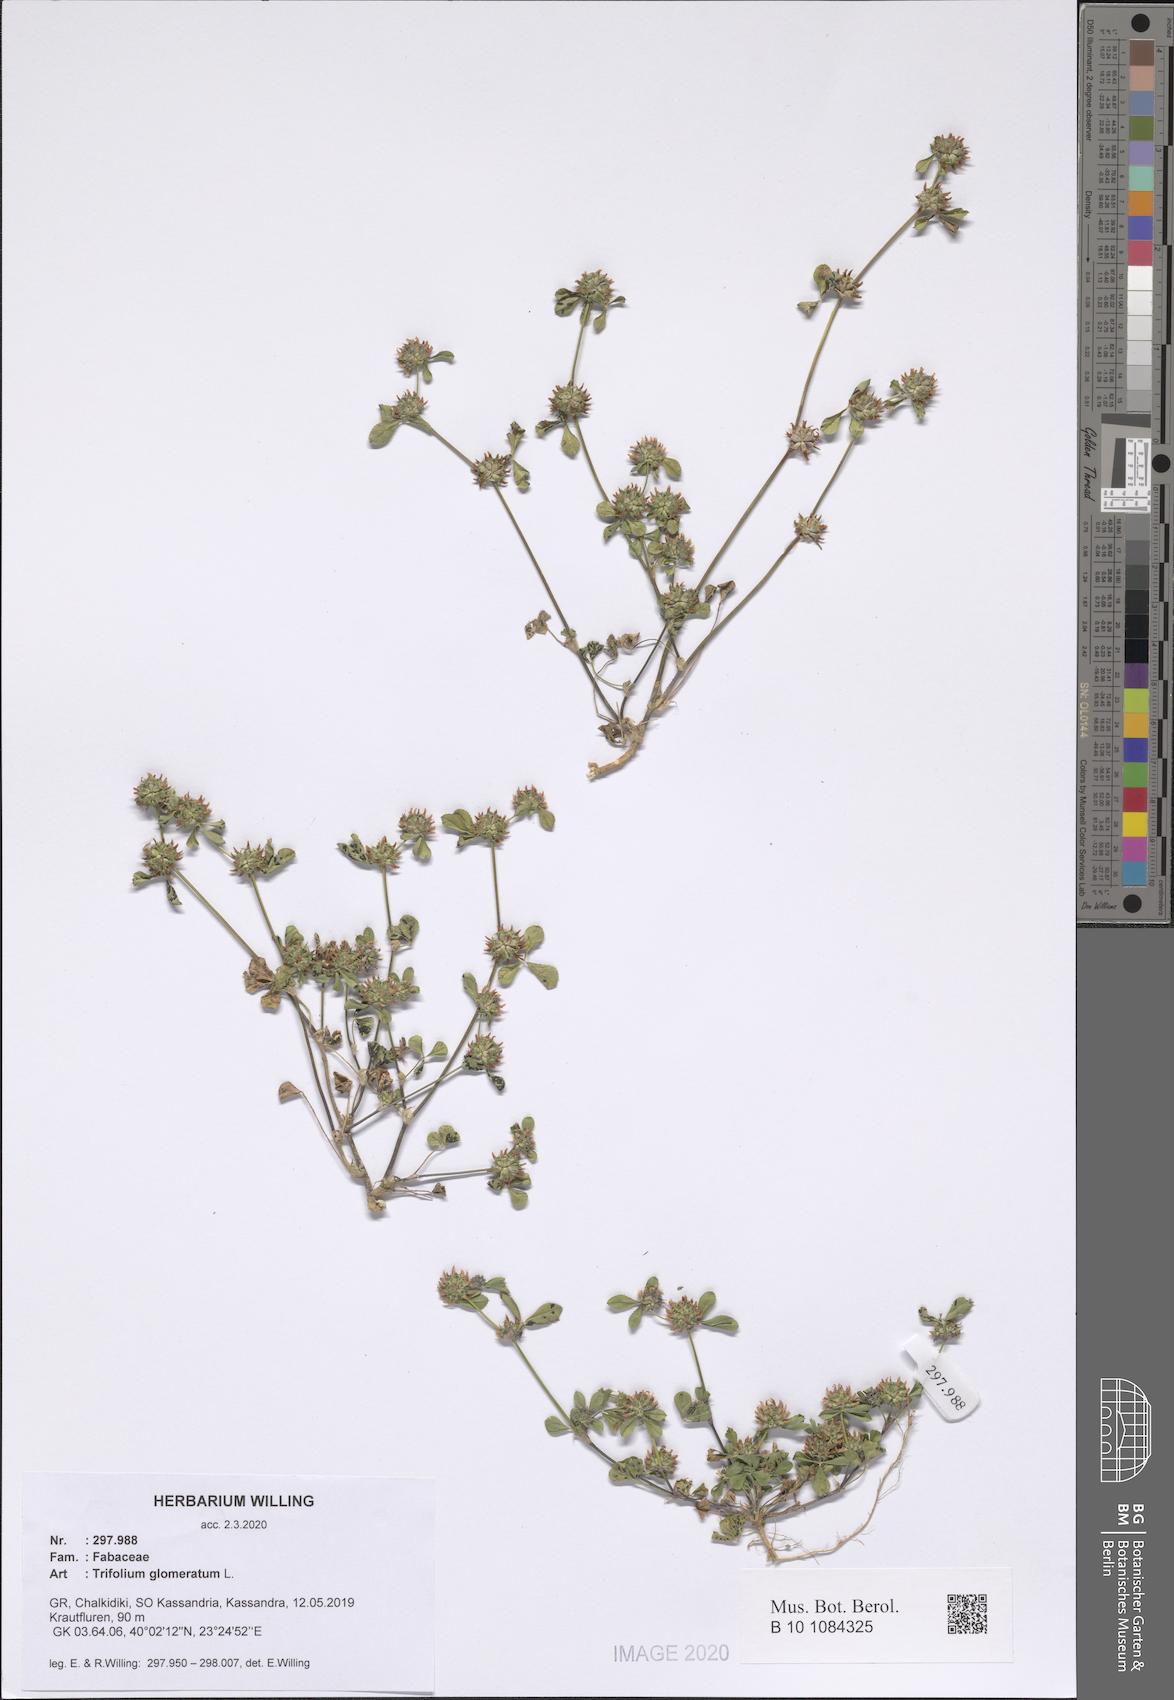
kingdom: Plantae
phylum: Tracheophyta
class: Magnoliopsida
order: Fabales
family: Fabaceae
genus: Trifolium
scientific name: Trifolium glomeratum
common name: Clustered clover
